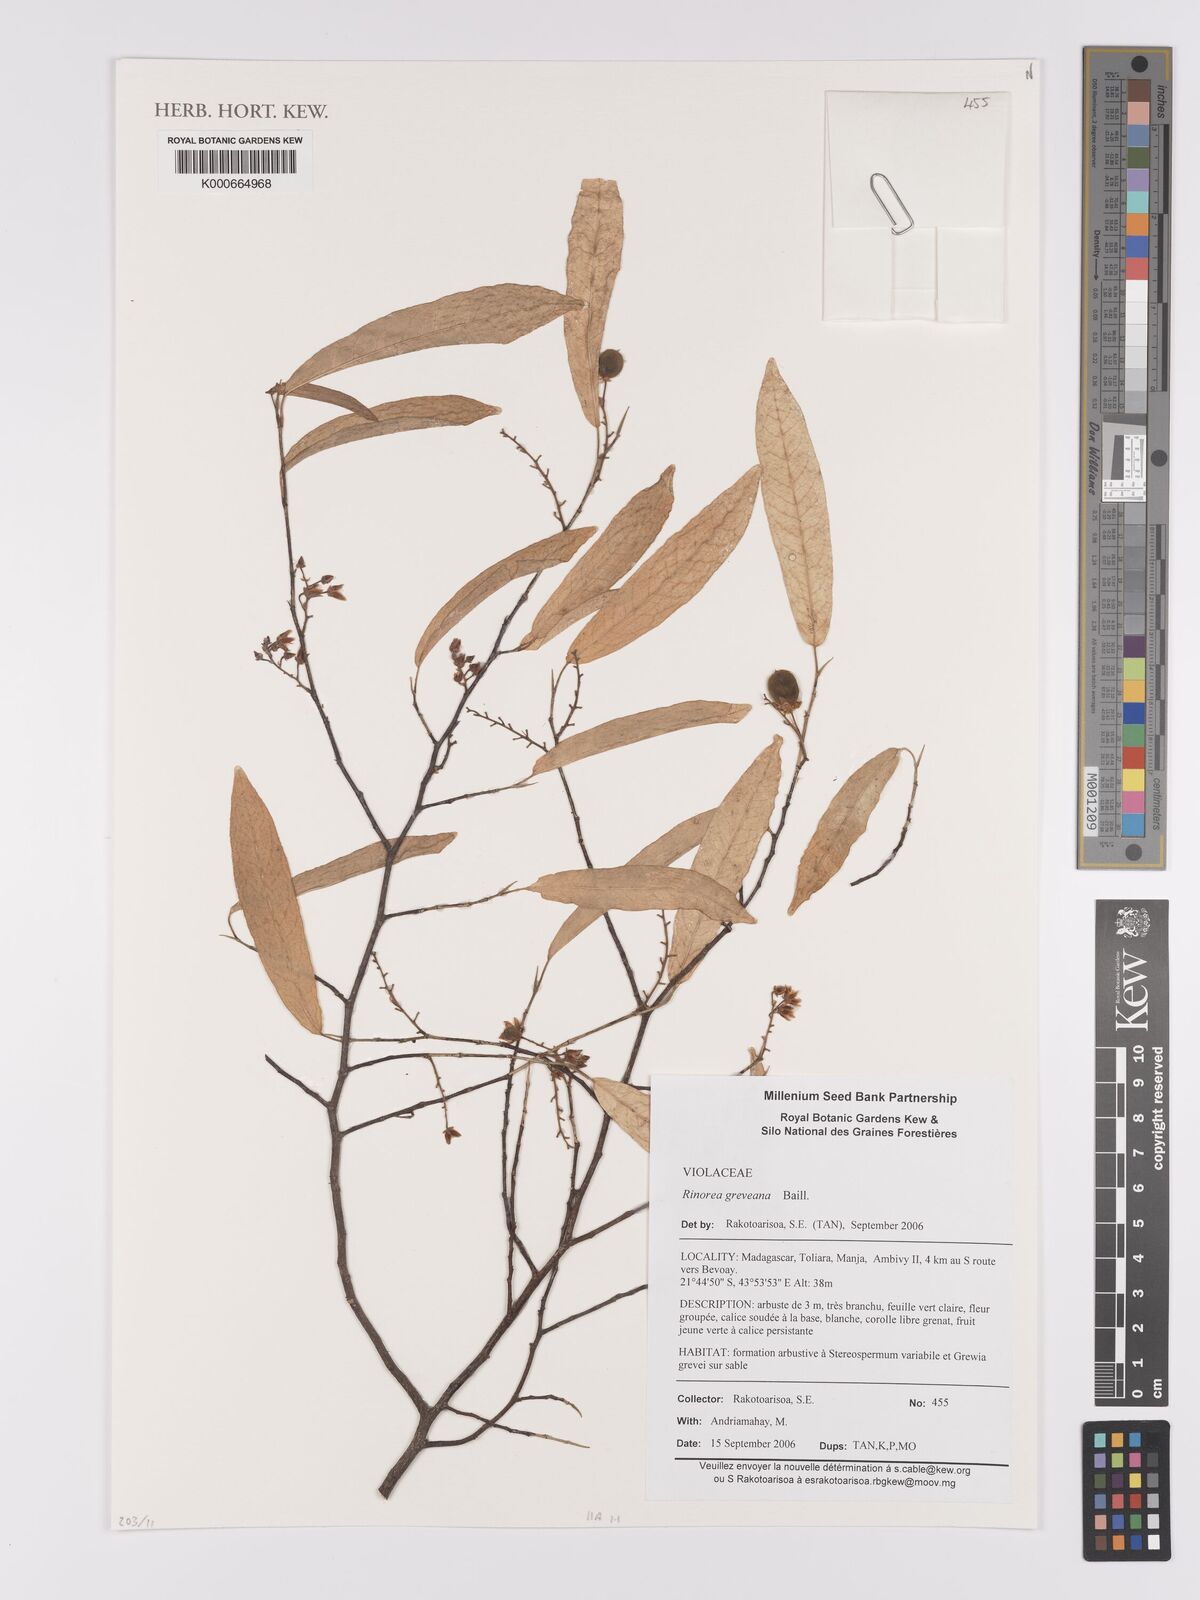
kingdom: Plantae
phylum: Tracheophyta
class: Magnoliopsida
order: Malpighiales
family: Violaceae
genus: Rinorea
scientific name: Rinorea greveana
